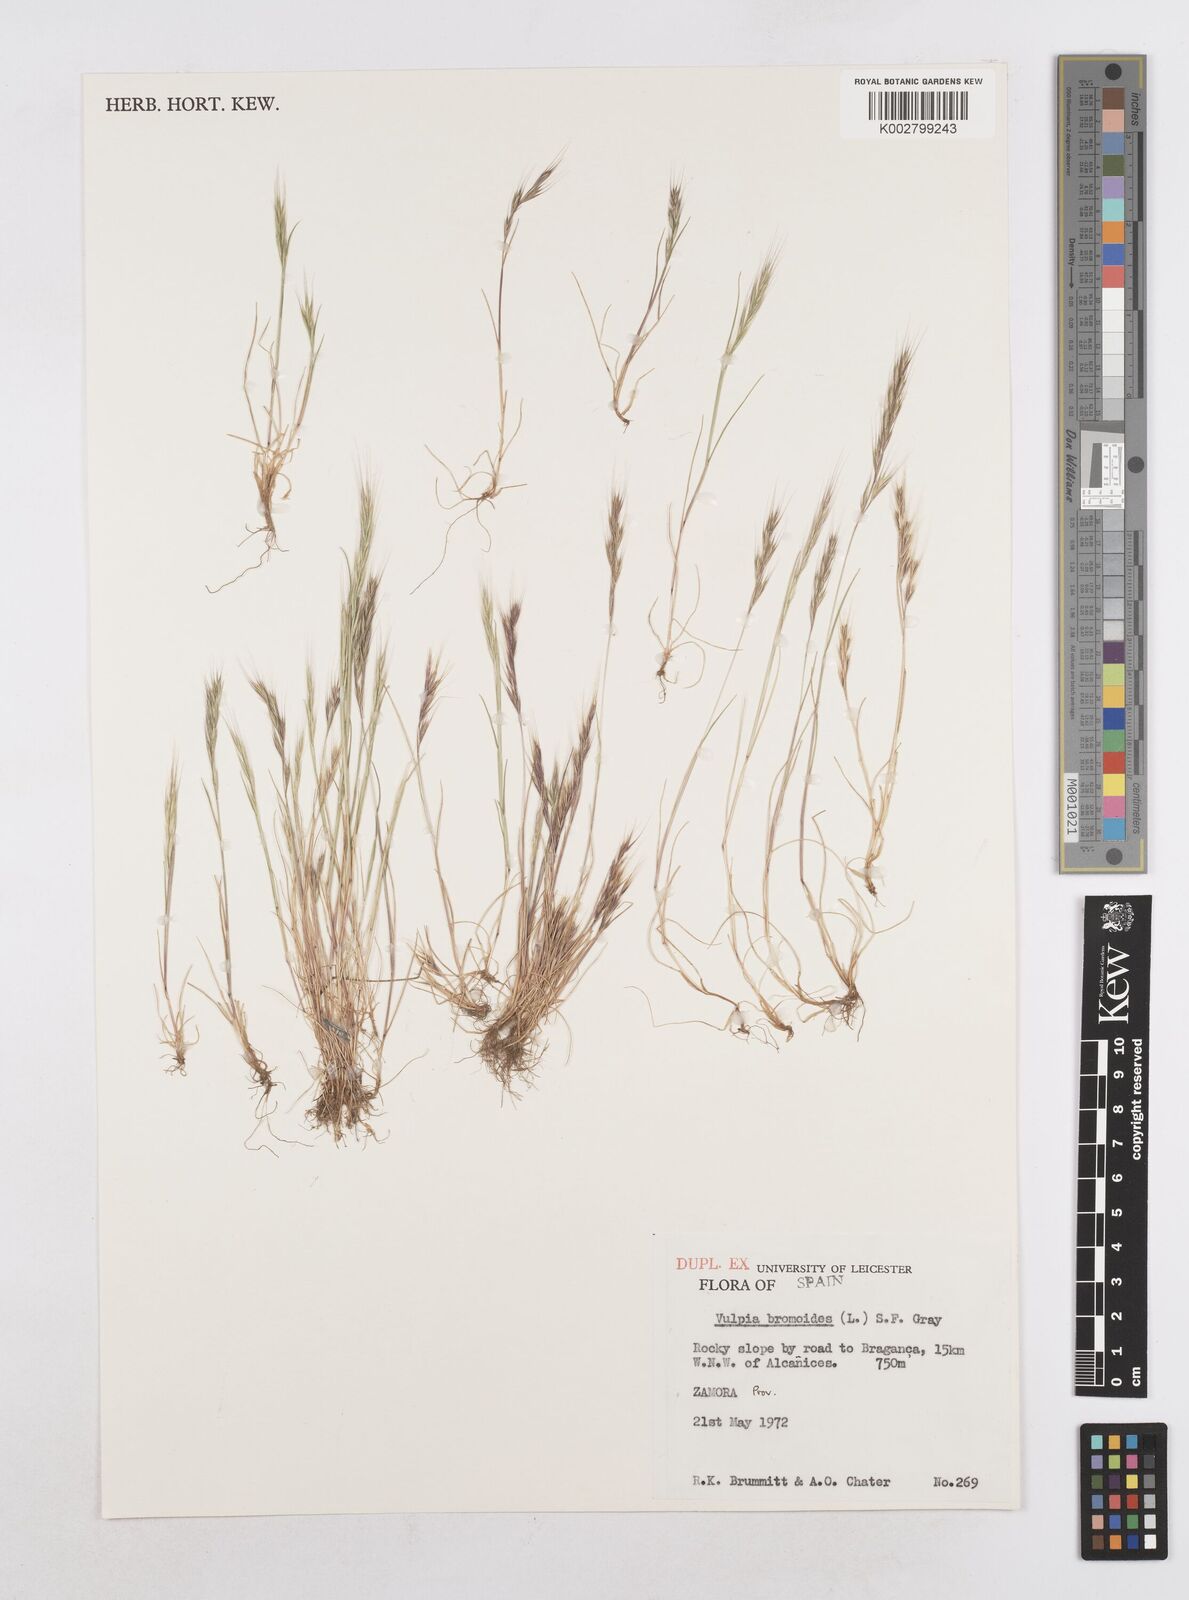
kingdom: Plantae
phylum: Tracheophyta
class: Liliopsida
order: Poales
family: Poaceae
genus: Festuca
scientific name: Festuca bromoides
